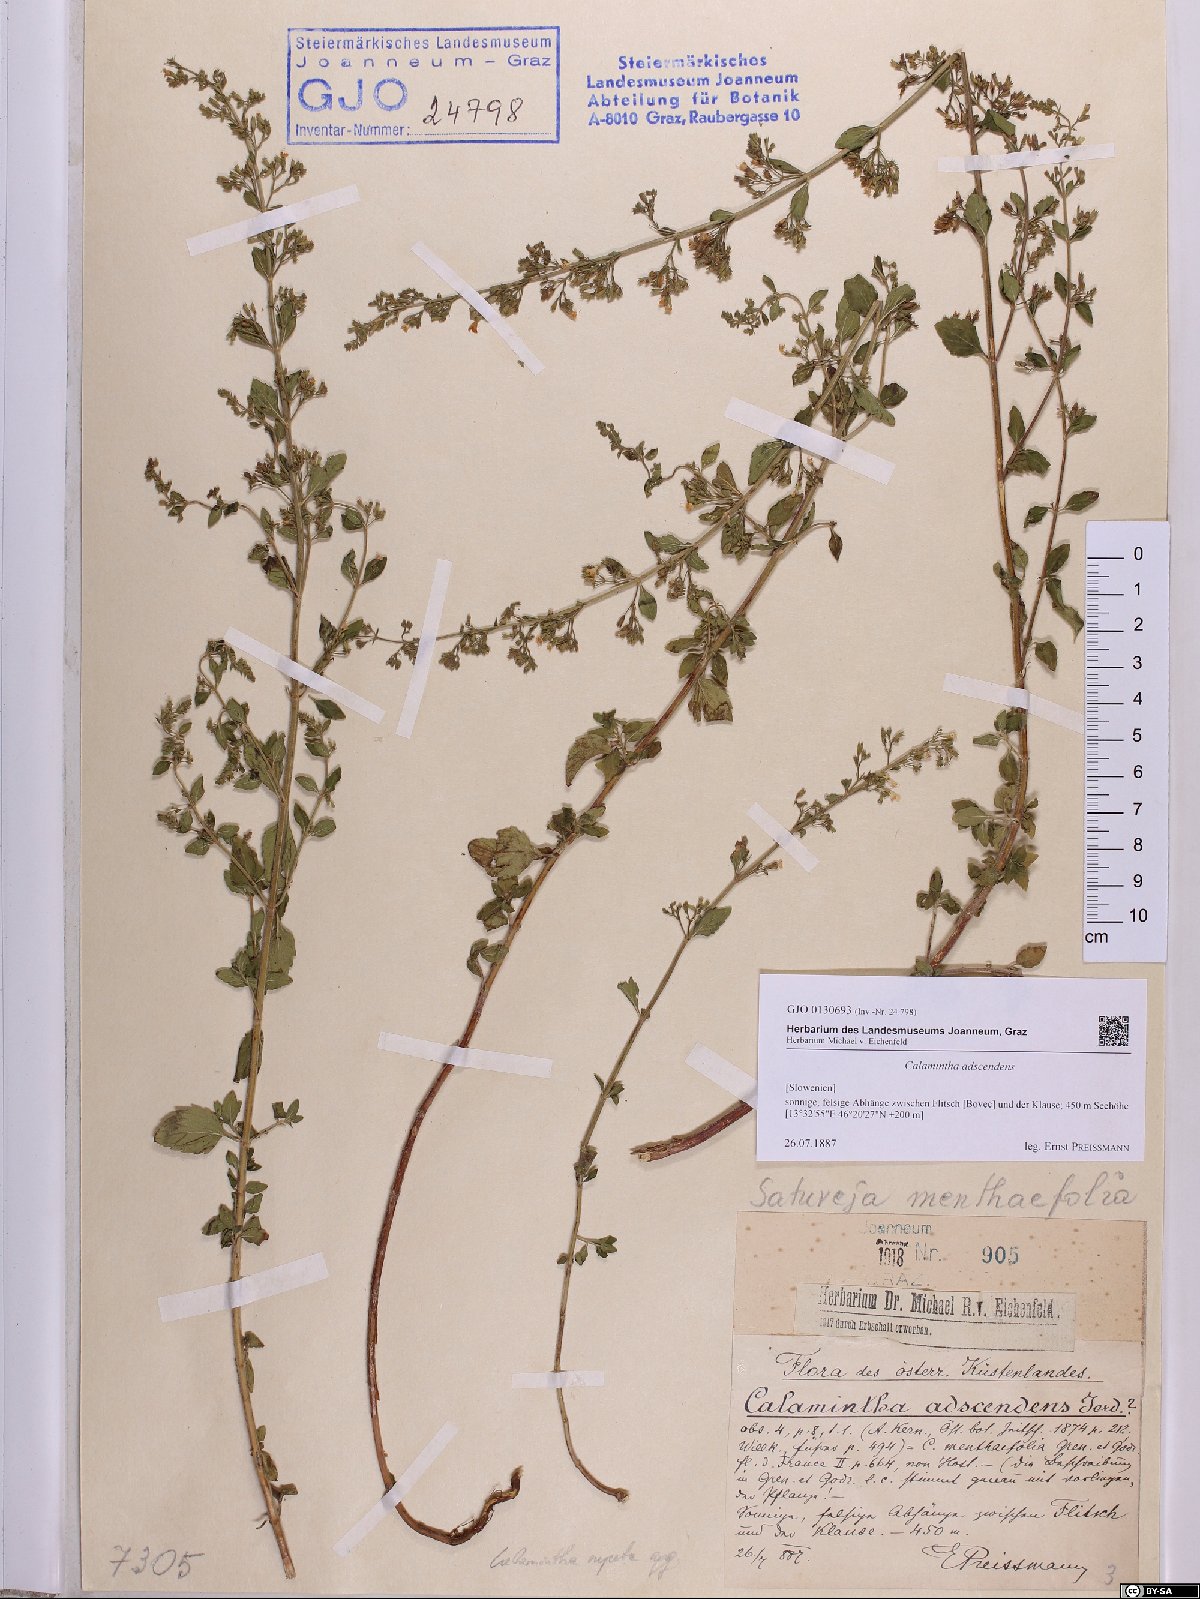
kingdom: Plantae
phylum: Tracheophyta
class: Magnoliopsida
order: Lamiales
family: Lamiaceae
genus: Clinopodium
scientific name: Clinopodium nepeta
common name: Lesser calamint
